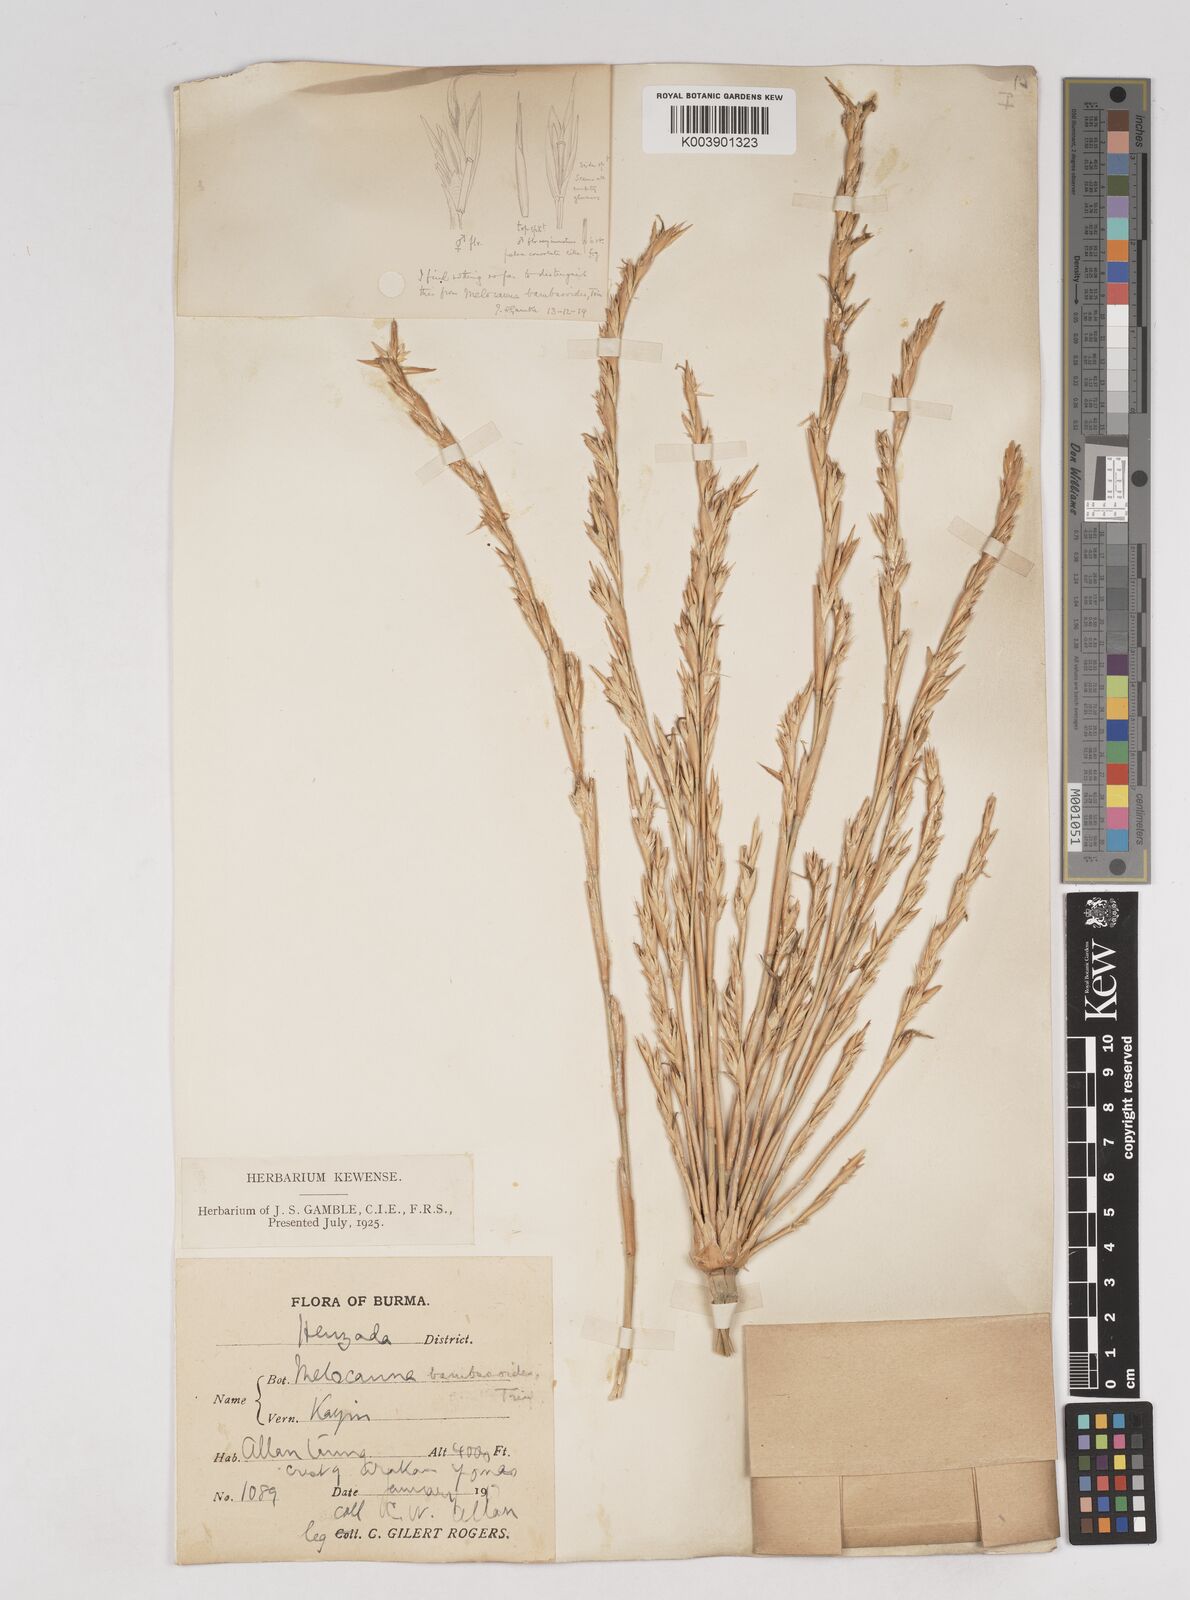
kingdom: Plantae
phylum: Tracheophyta
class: Liliopsida
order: Poales
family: Poaceae
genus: Melocanna
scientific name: Melocanna
